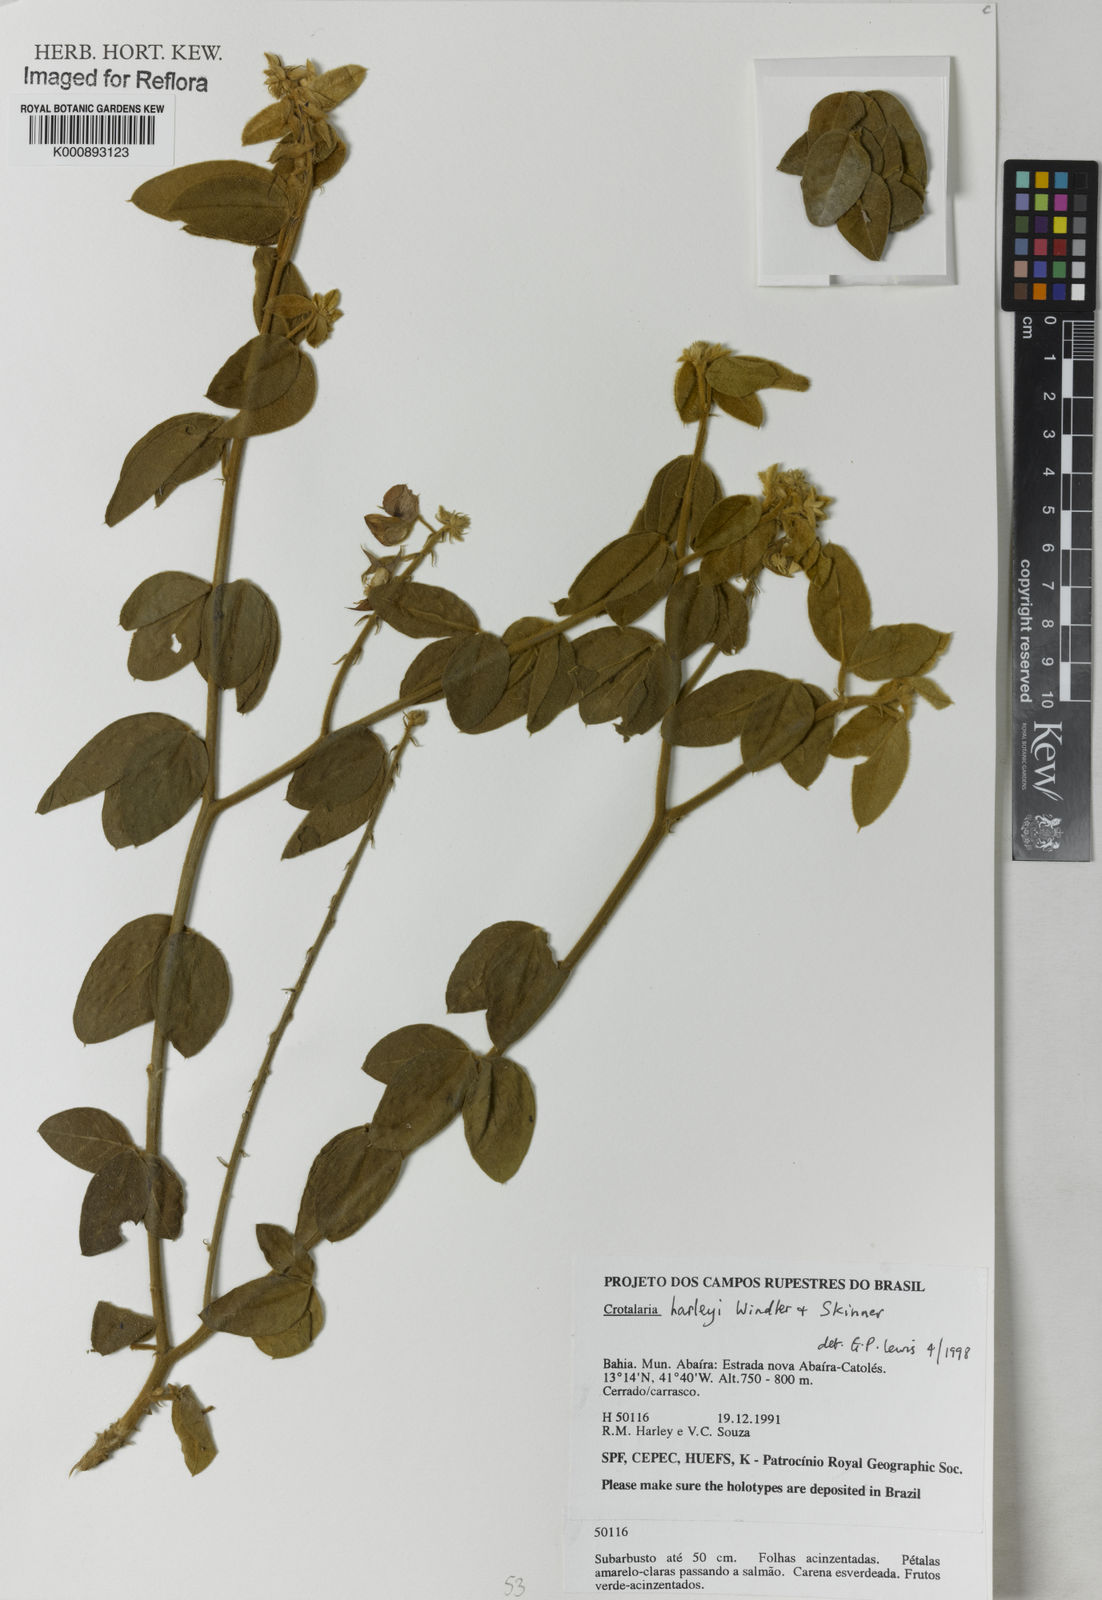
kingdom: Plantae
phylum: Tracheophyta
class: Magnoliopsida
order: Fabales
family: Fabaceae
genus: Crotalaria
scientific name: Crotalaria harleyi
